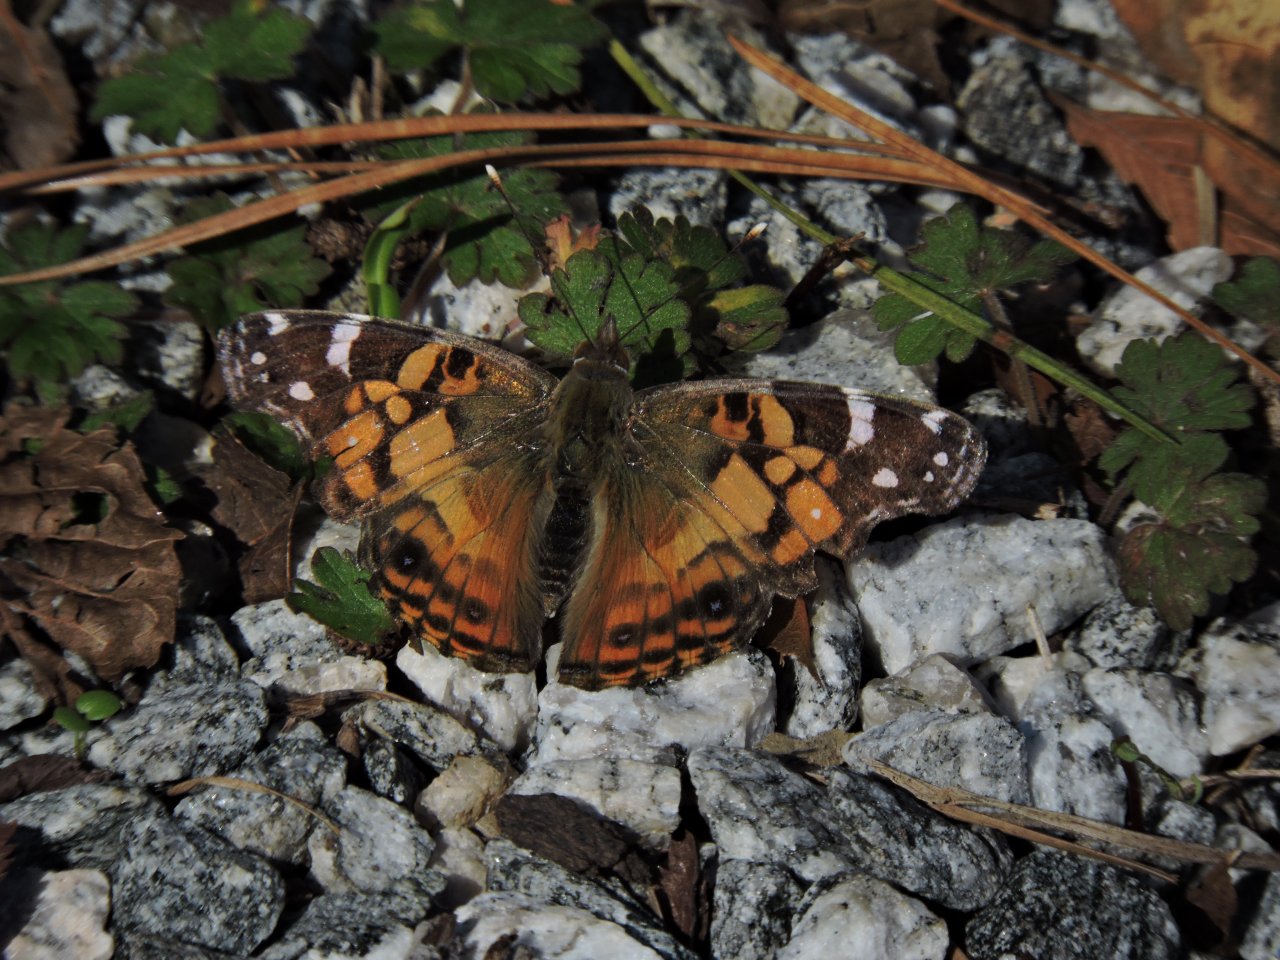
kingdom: Animalia
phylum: Arthropoda
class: Insecta
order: Lepidoptera
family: Nymphalidae
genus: Vanessa
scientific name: Vanessa virginiensis
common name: American Lady
